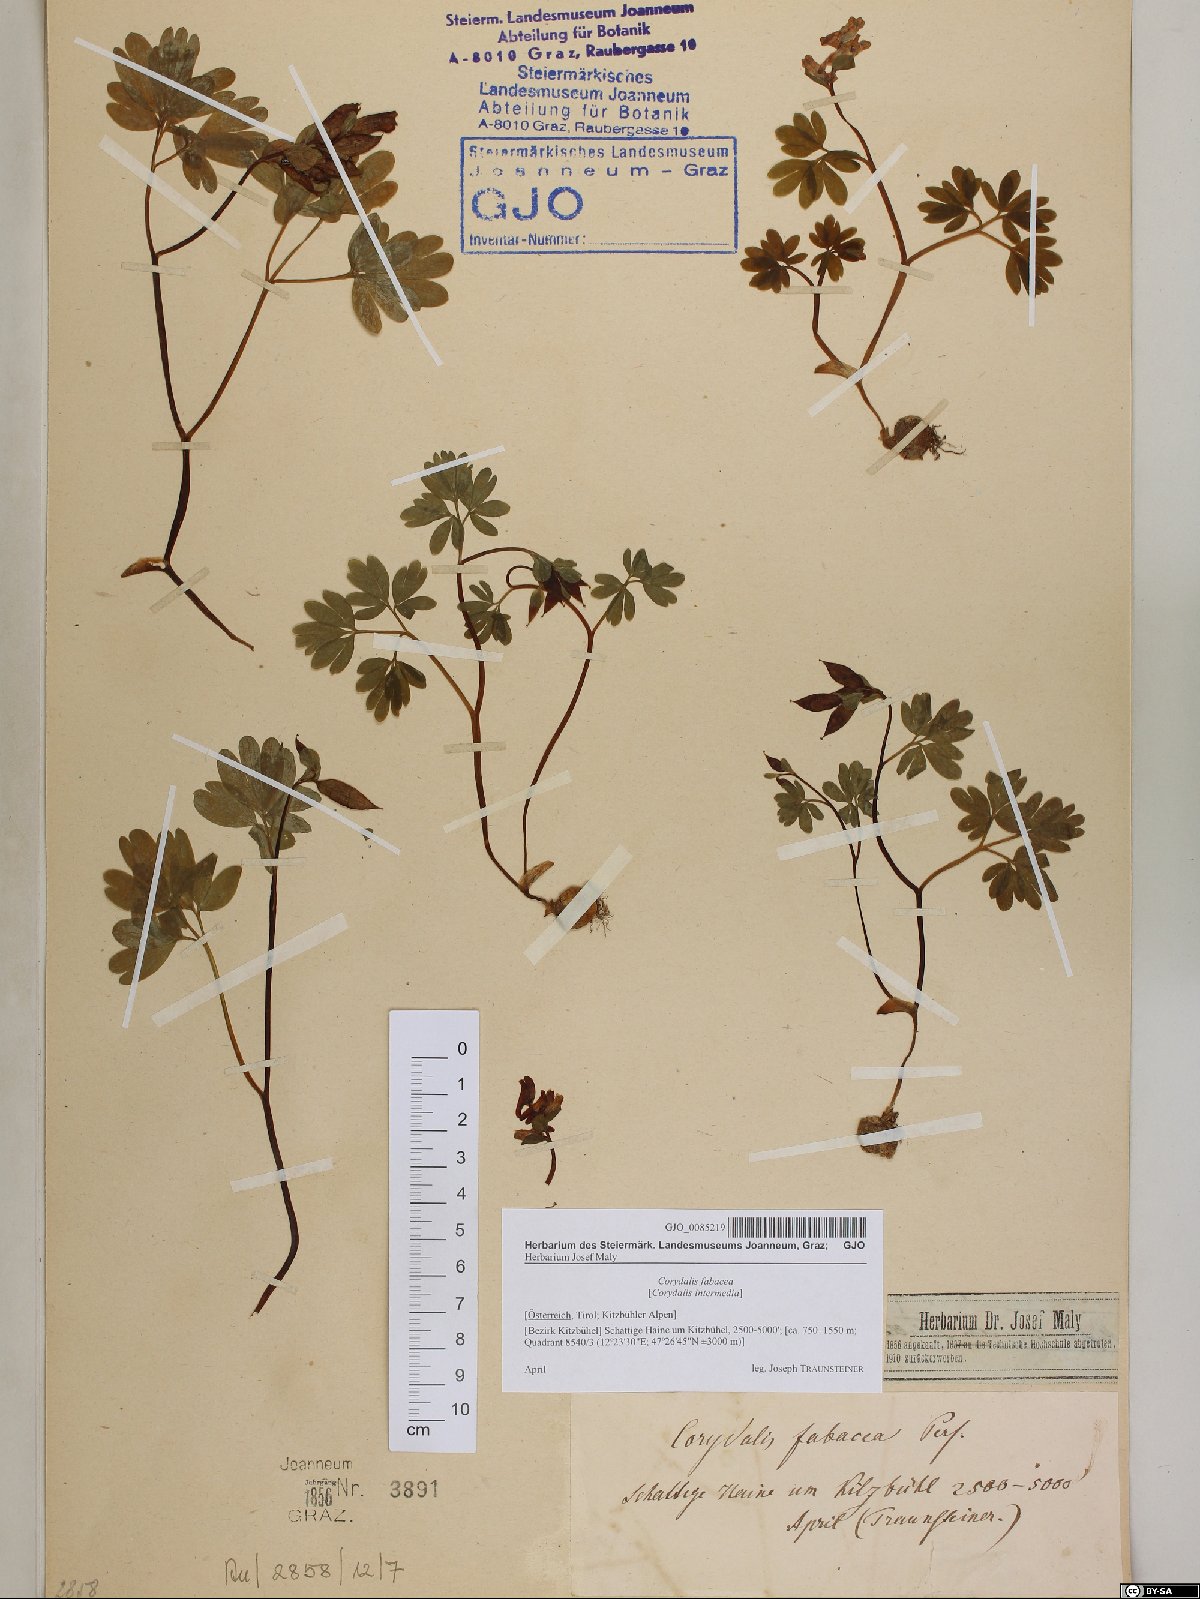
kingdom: Plantae
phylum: Tracheophyta
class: Magnoliopsida
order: Ranunculales
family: Papaveraceae
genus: Corydalis
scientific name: Corydalis intermedia
